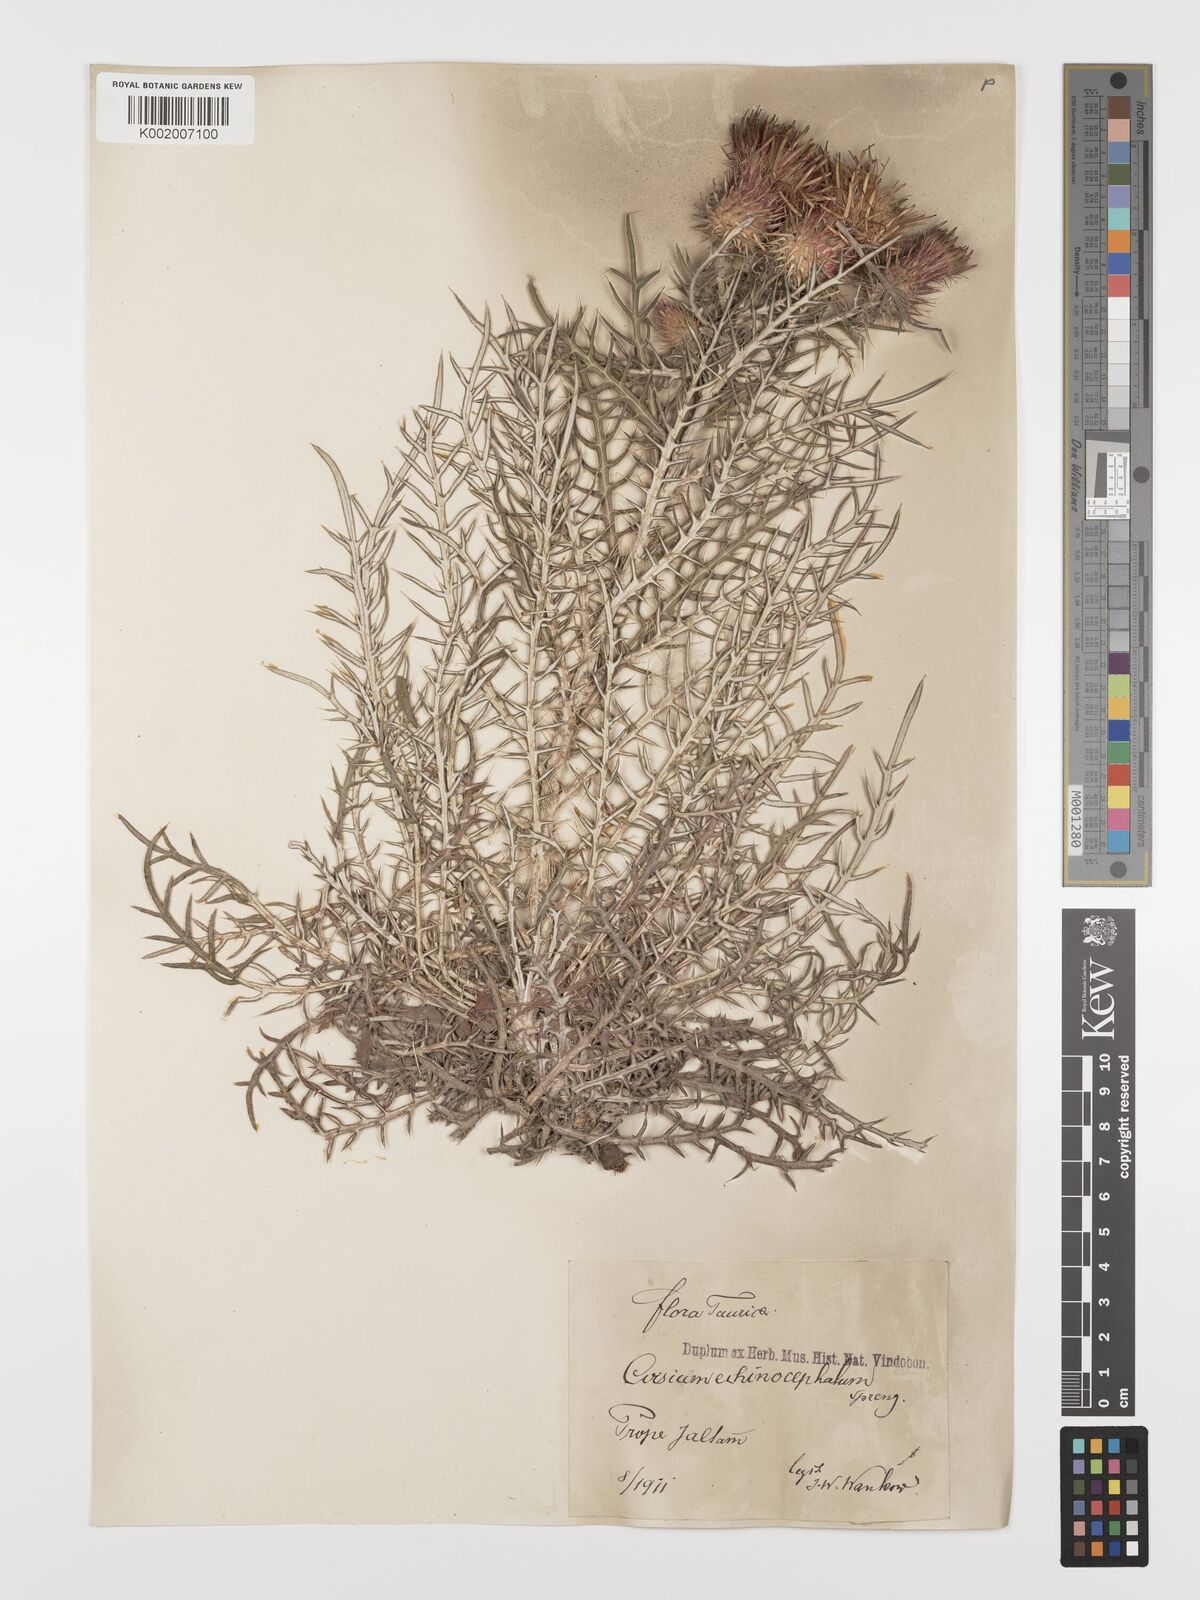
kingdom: Plantae
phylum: Tracheophyta
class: Magnoliopsida
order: Asterales
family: Asteraceae
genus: Ptilostemon
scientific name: Ptilostemon echinocephalus
